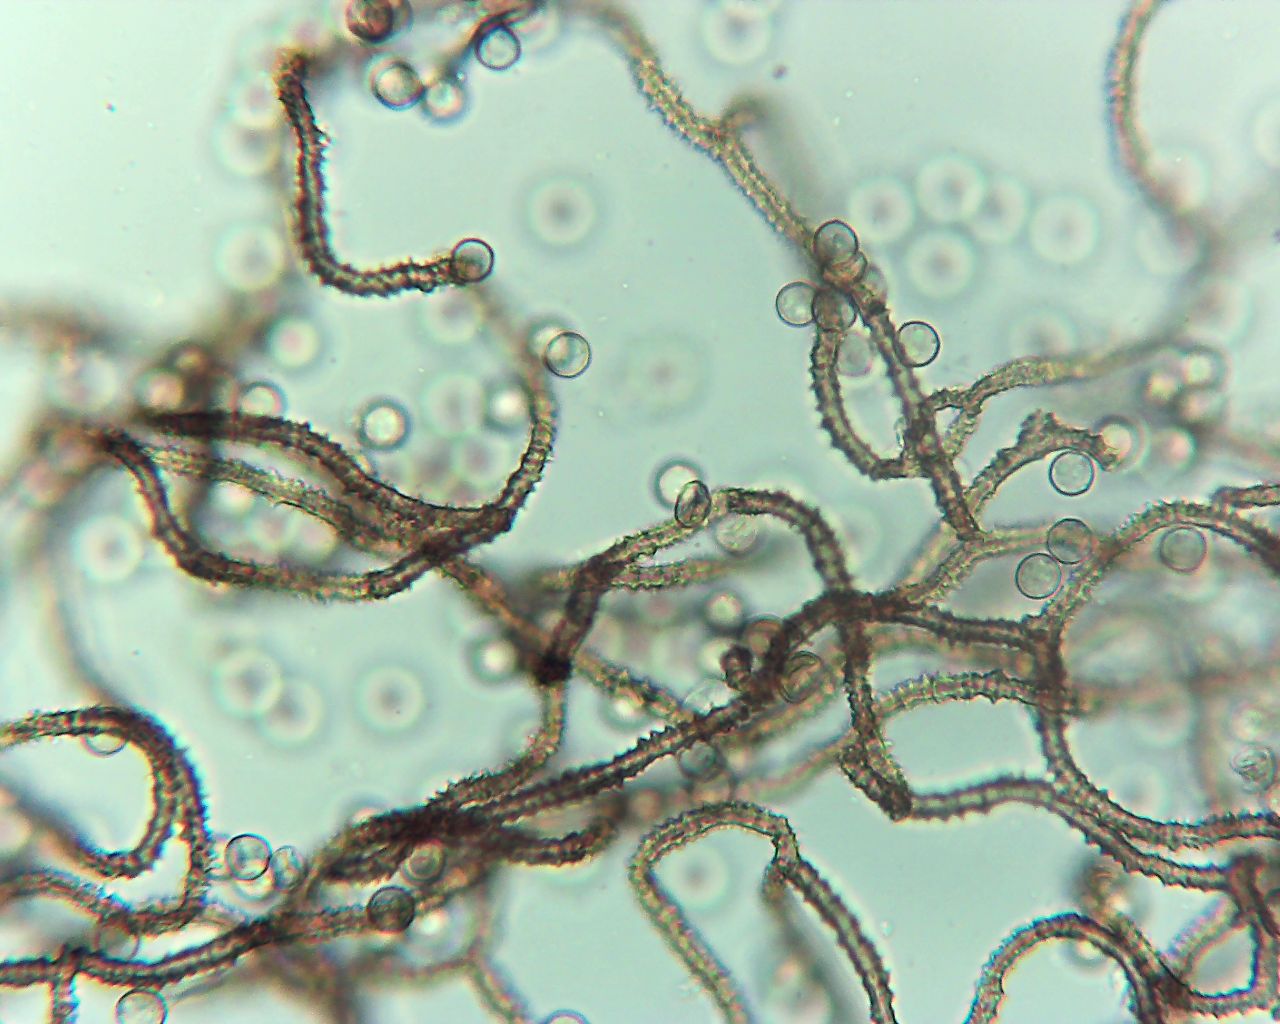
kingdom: Protozoa
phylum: Amoebozoa
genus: Arcyria
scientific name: Arcyria
